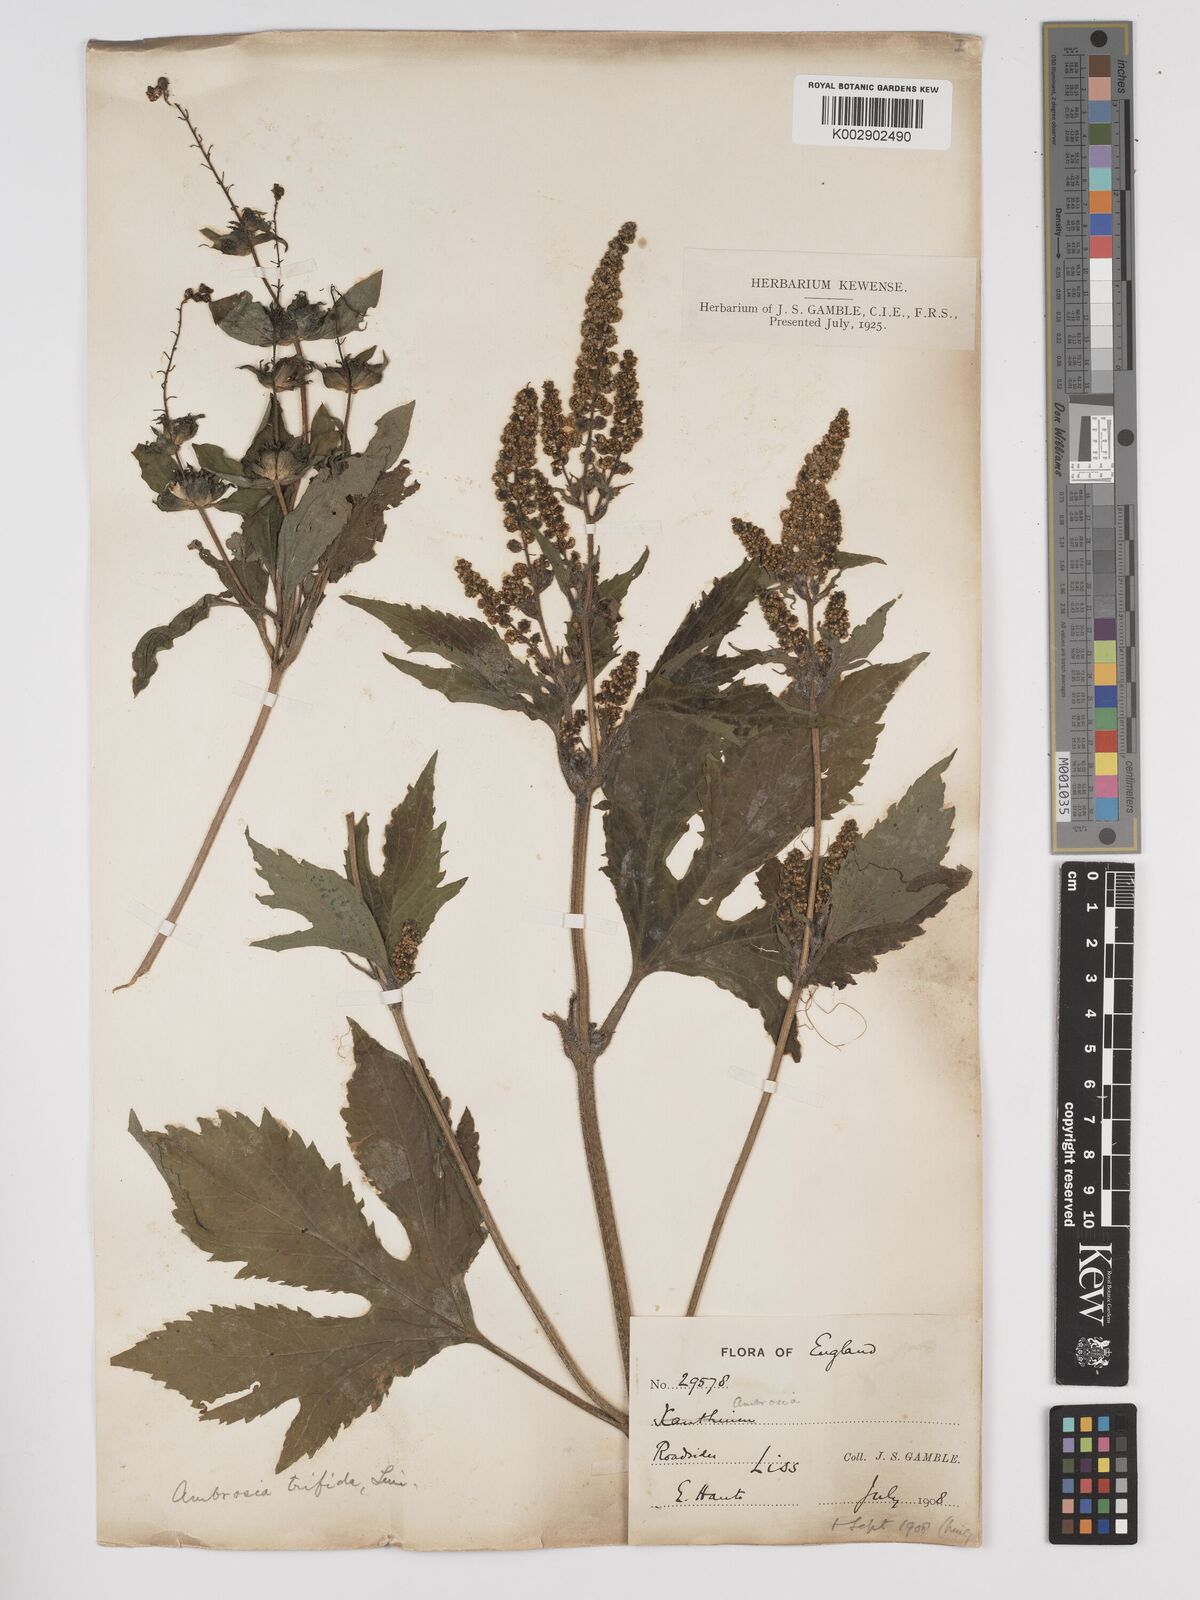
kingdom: Plantae
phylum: Tracheophyta
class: Magnoliopsida
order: Asterales
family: Asteraceae
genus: Ambrosia
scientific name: Ambrosia trifida
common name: Giant ragweed
